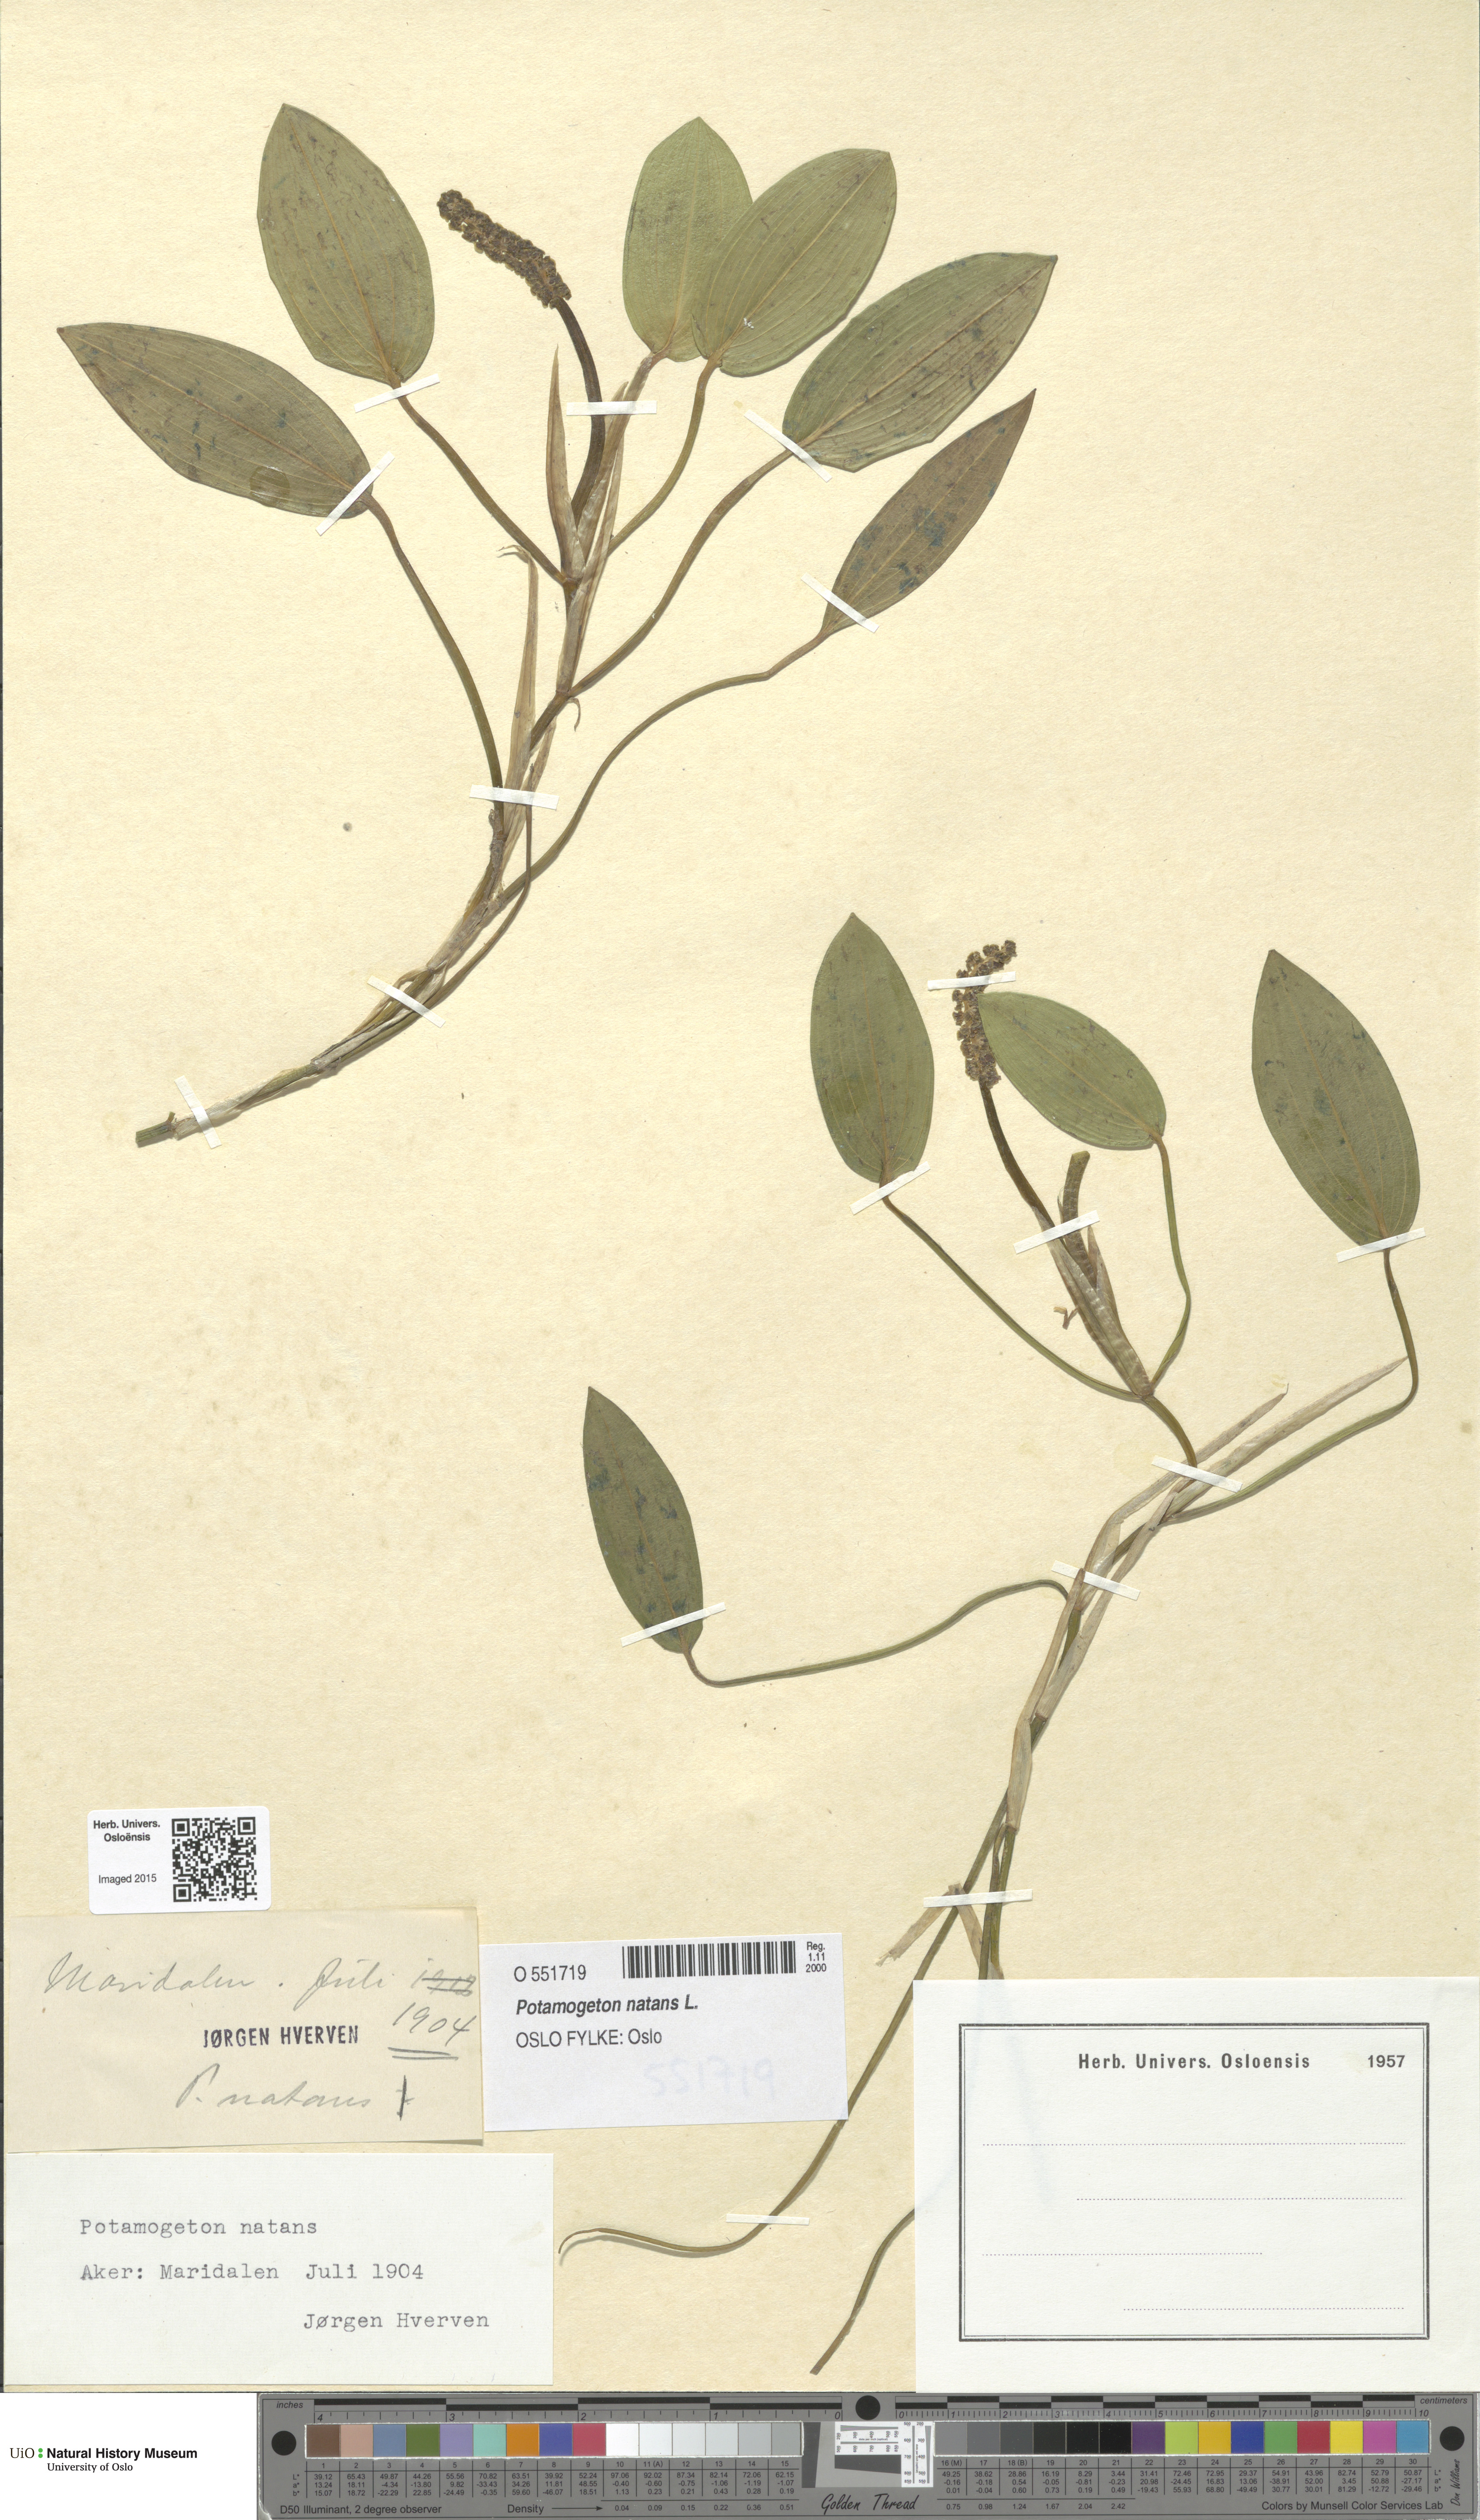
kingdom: Plantae
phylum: Tracheophyta
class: Liliopsida
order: Alismatales
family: Potamogetonaceae
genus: Potamogeton
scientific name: Potamogeton natans
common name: Broad-leaved pondweed
